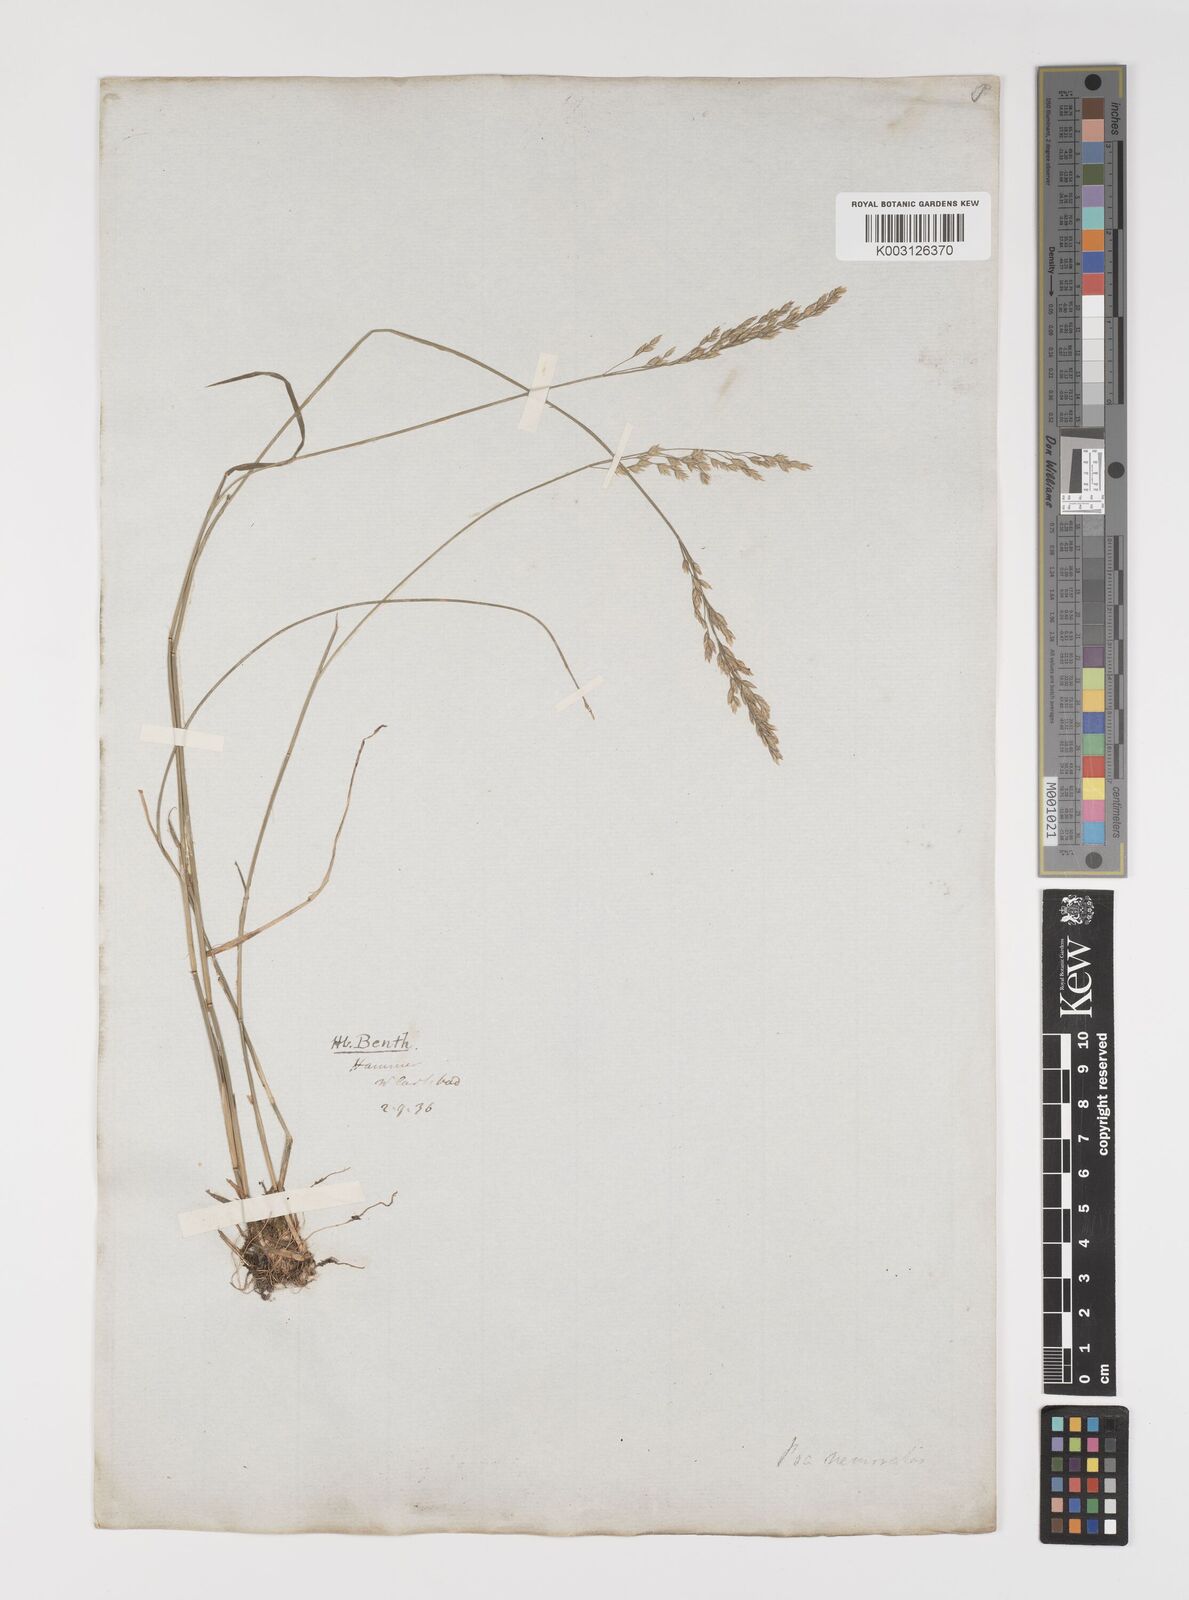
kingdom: Plantae
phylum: Tracheophyta
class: Liliopsida
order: Poales
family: Poaceae
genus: Poa
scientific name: Poa glauca
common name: Glaucous bluegrass
